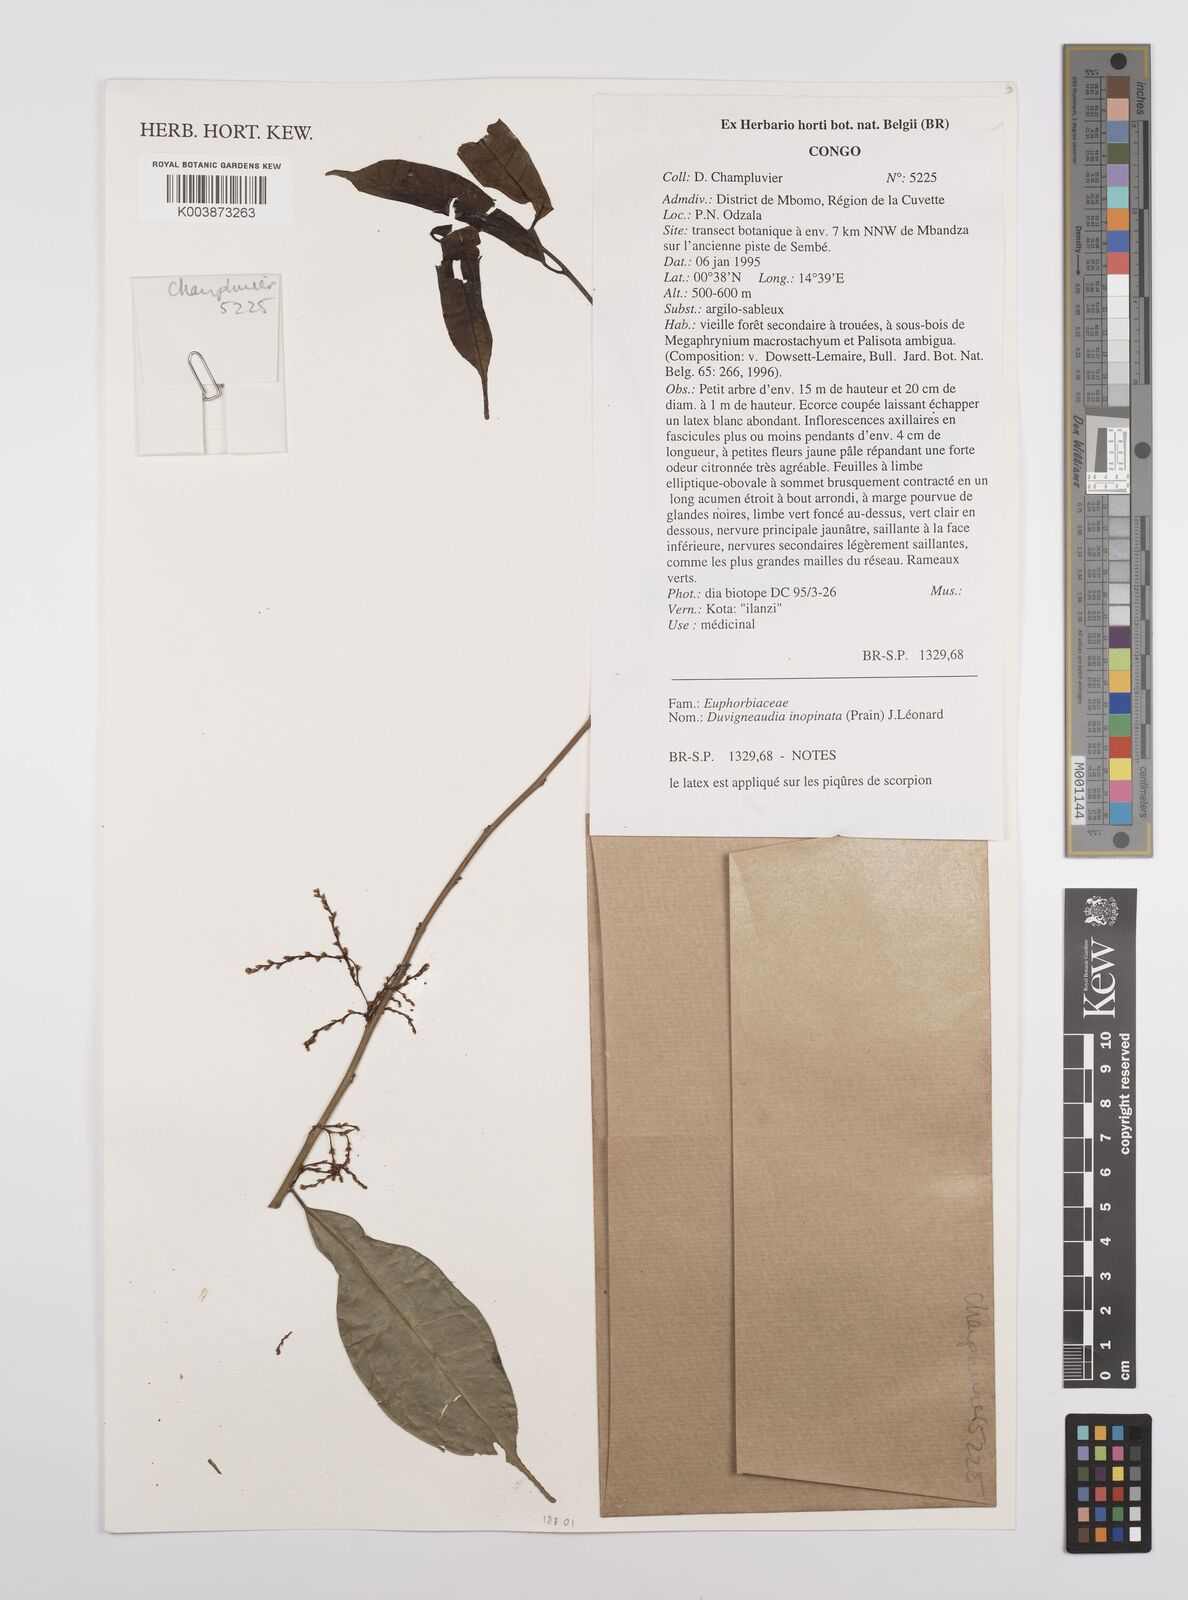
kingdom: Plantae
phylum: Tracheophyta
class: Magnoliopsida
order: Malpighiales
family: Euphorbiaceae
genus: Gymnanthes
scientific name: Gymnanthes
